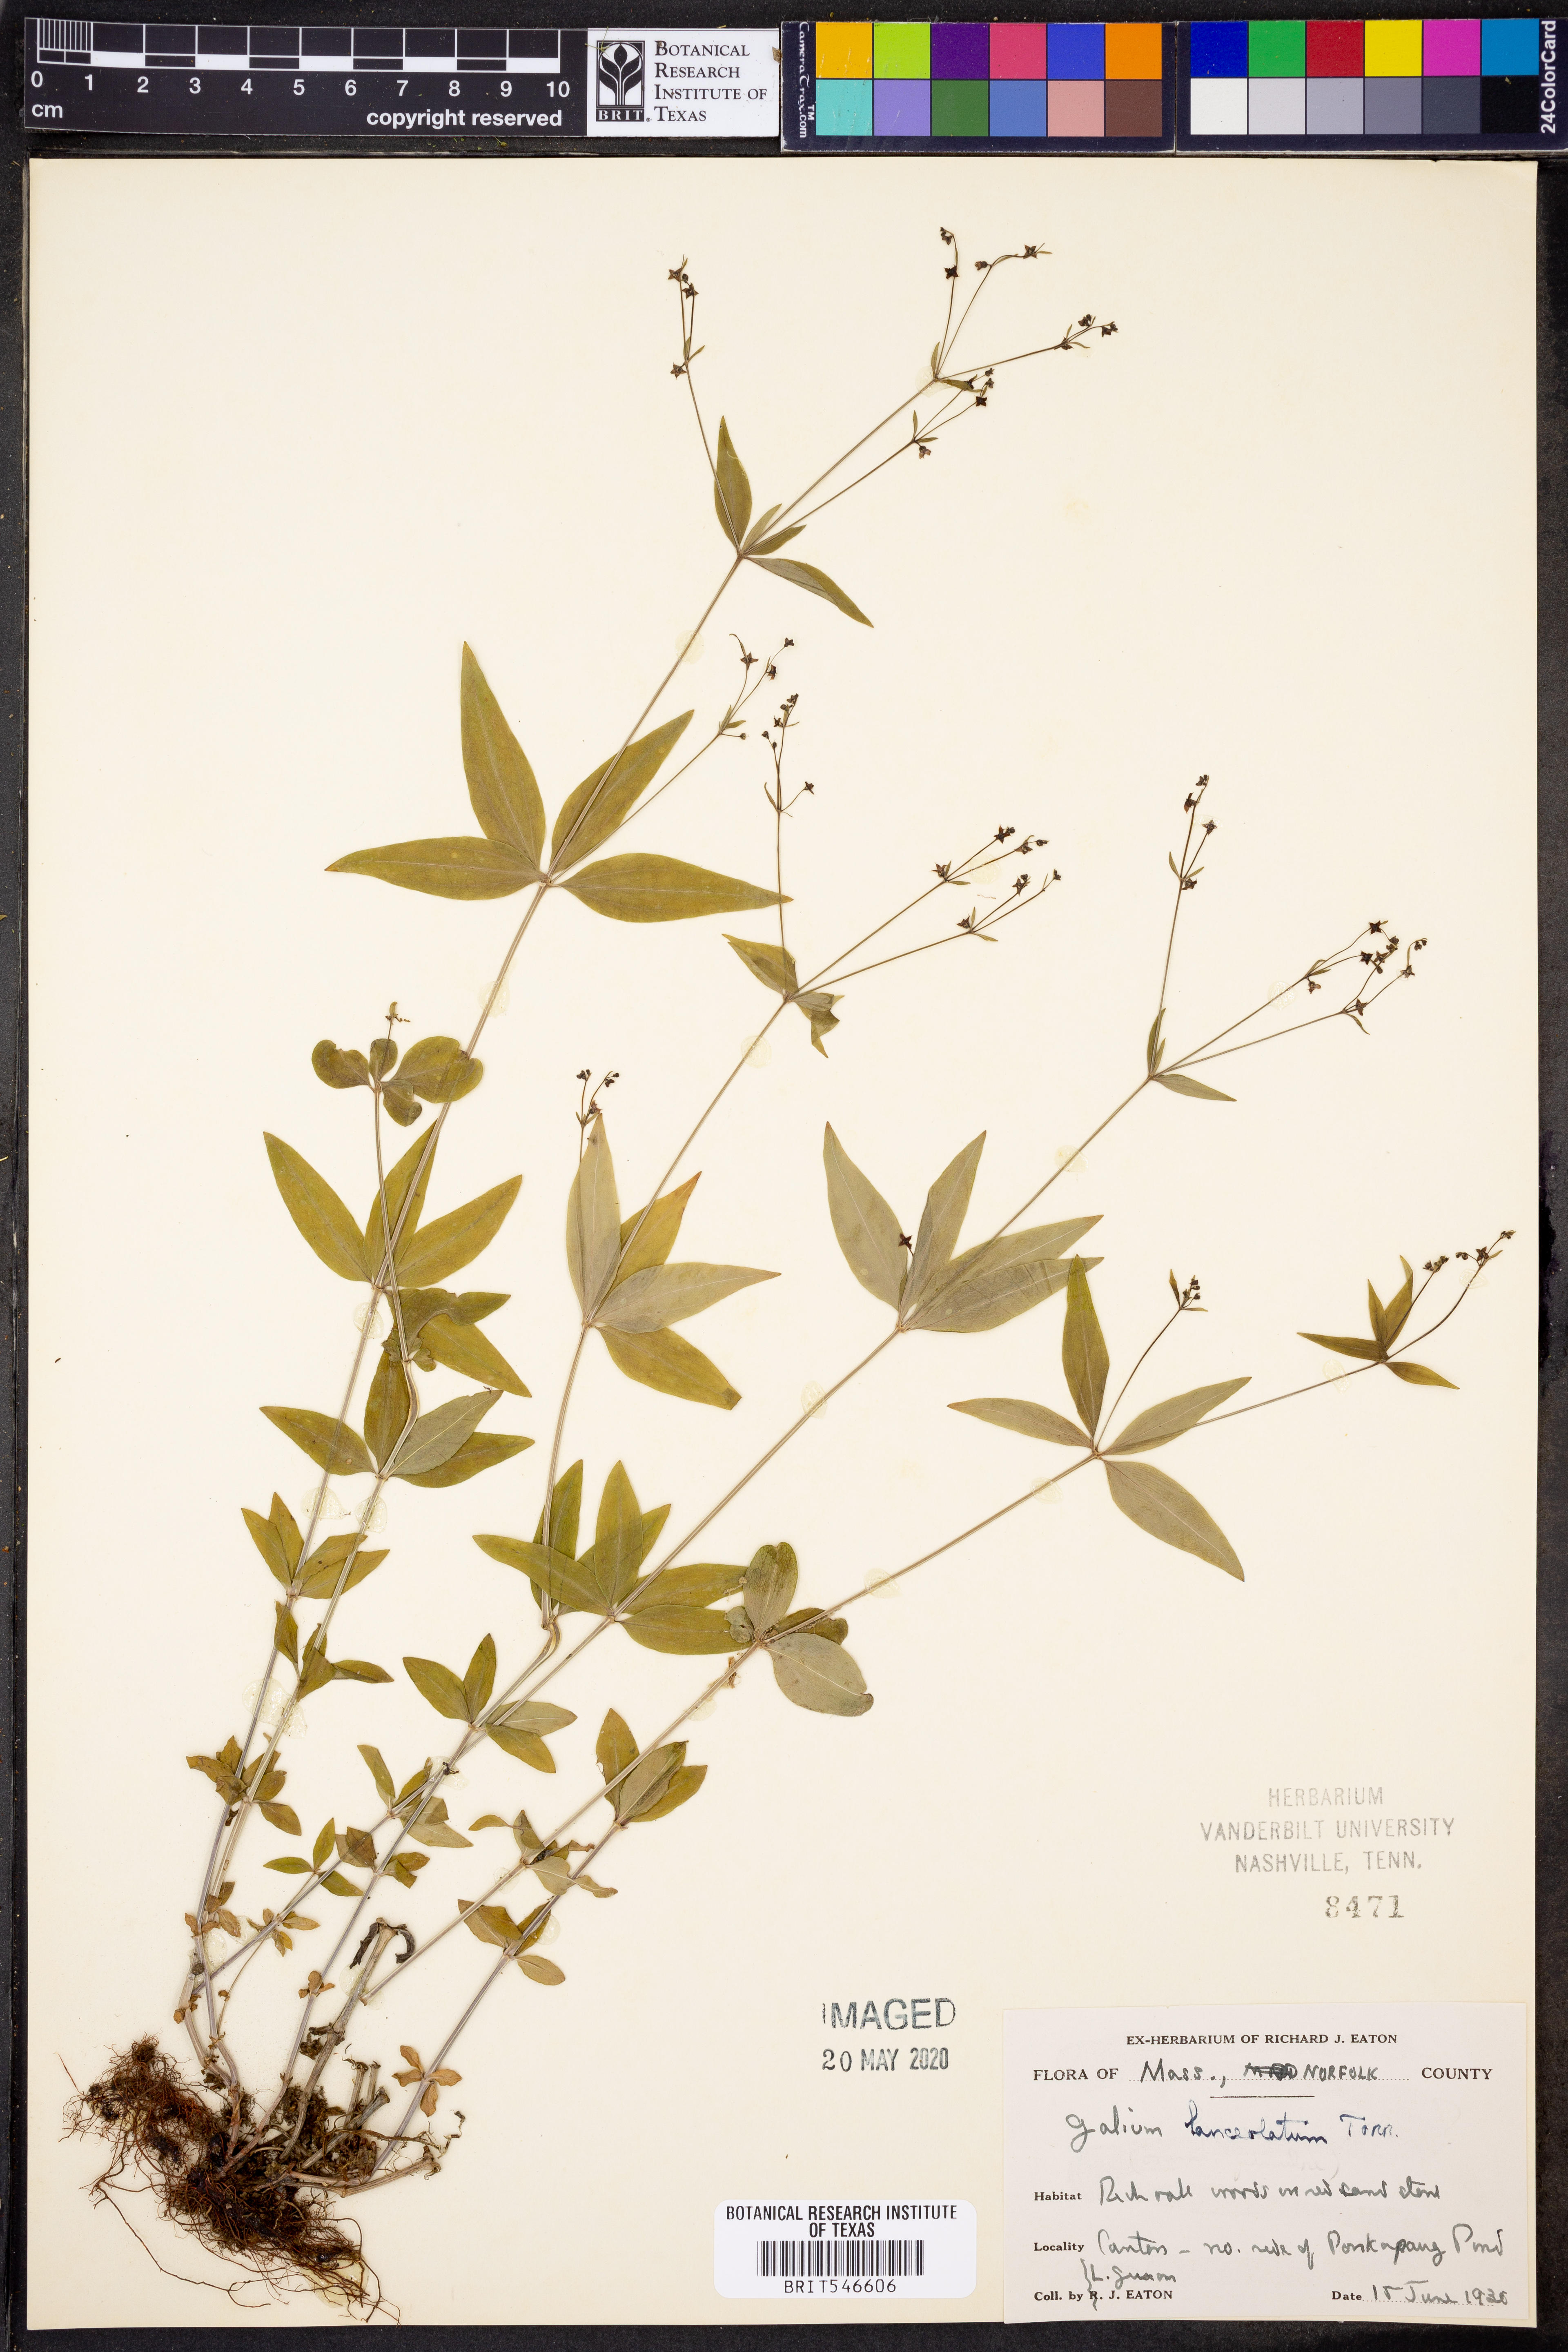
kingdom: Plantae
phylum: Tracheophyta
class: Magnoliopsida
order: Gentianales
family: Rubiaceae
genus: Galium
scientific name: Galium lanceolatum
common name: Lance-leaved wild licorice
